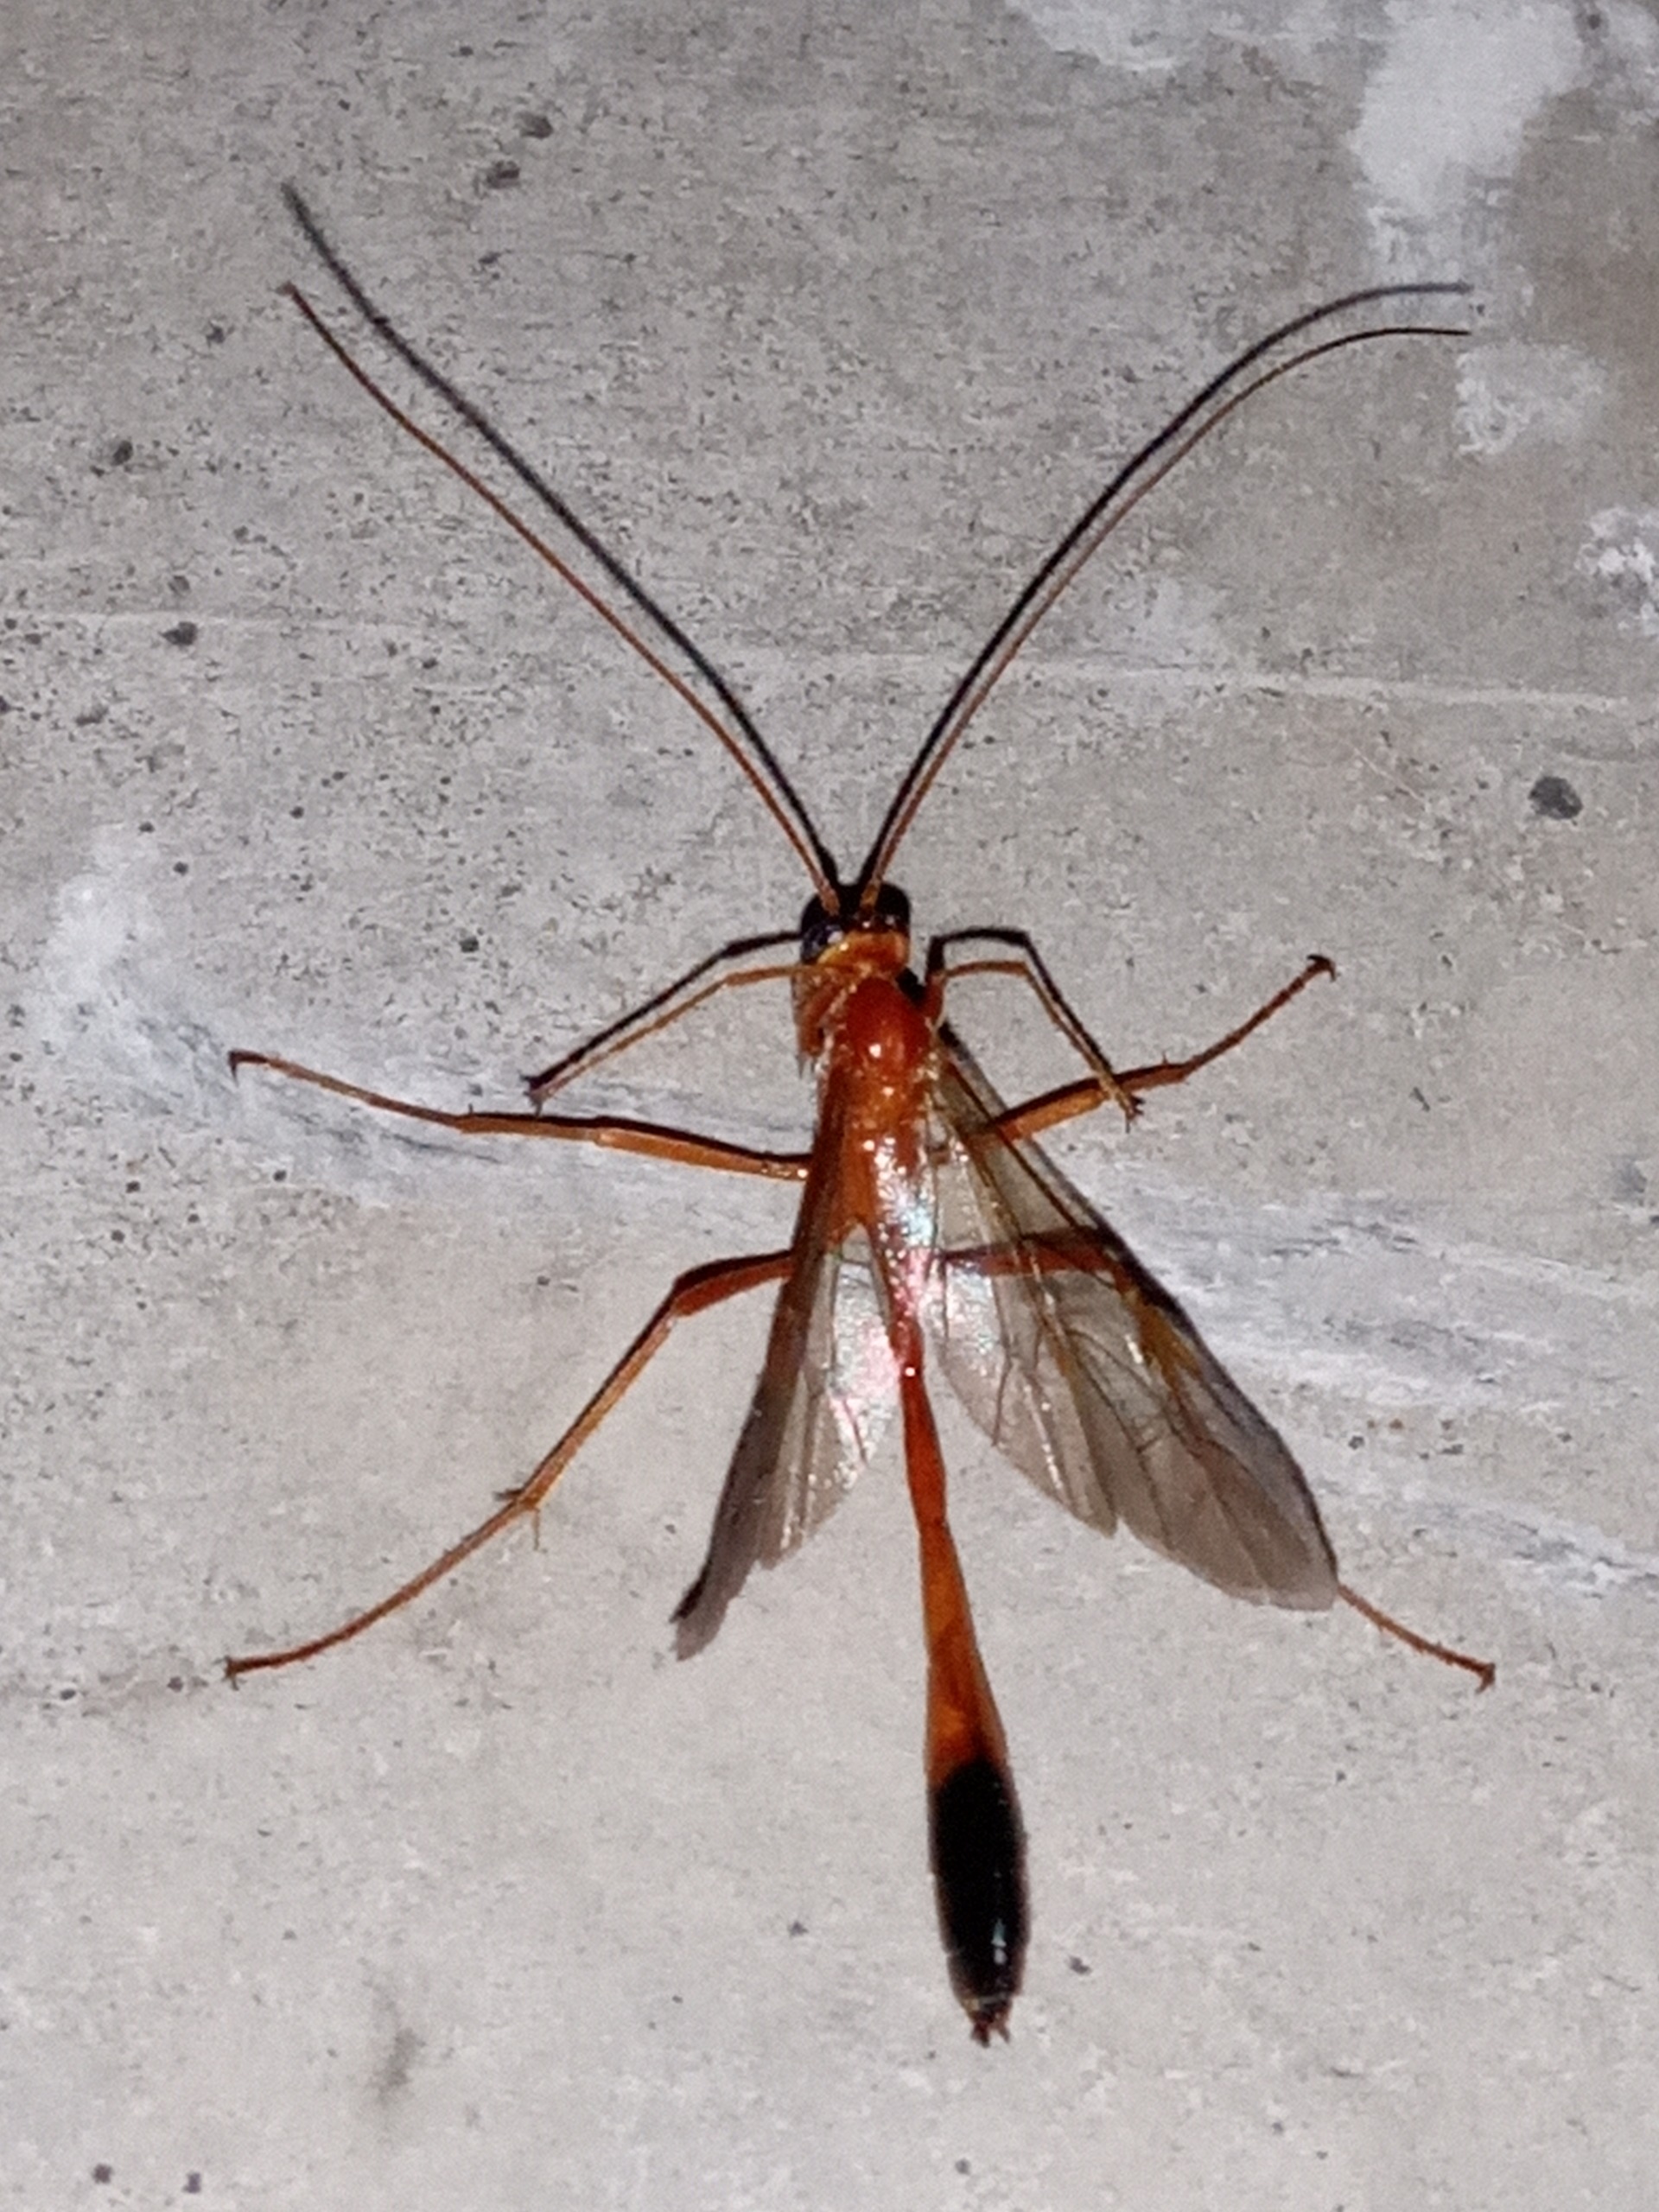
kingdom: Animalia
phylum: Arthropoda
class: Insecta
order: Hymenoptera
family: Ichneumonidae
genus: Enicospilus
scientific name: Enicospilus ramidulus
